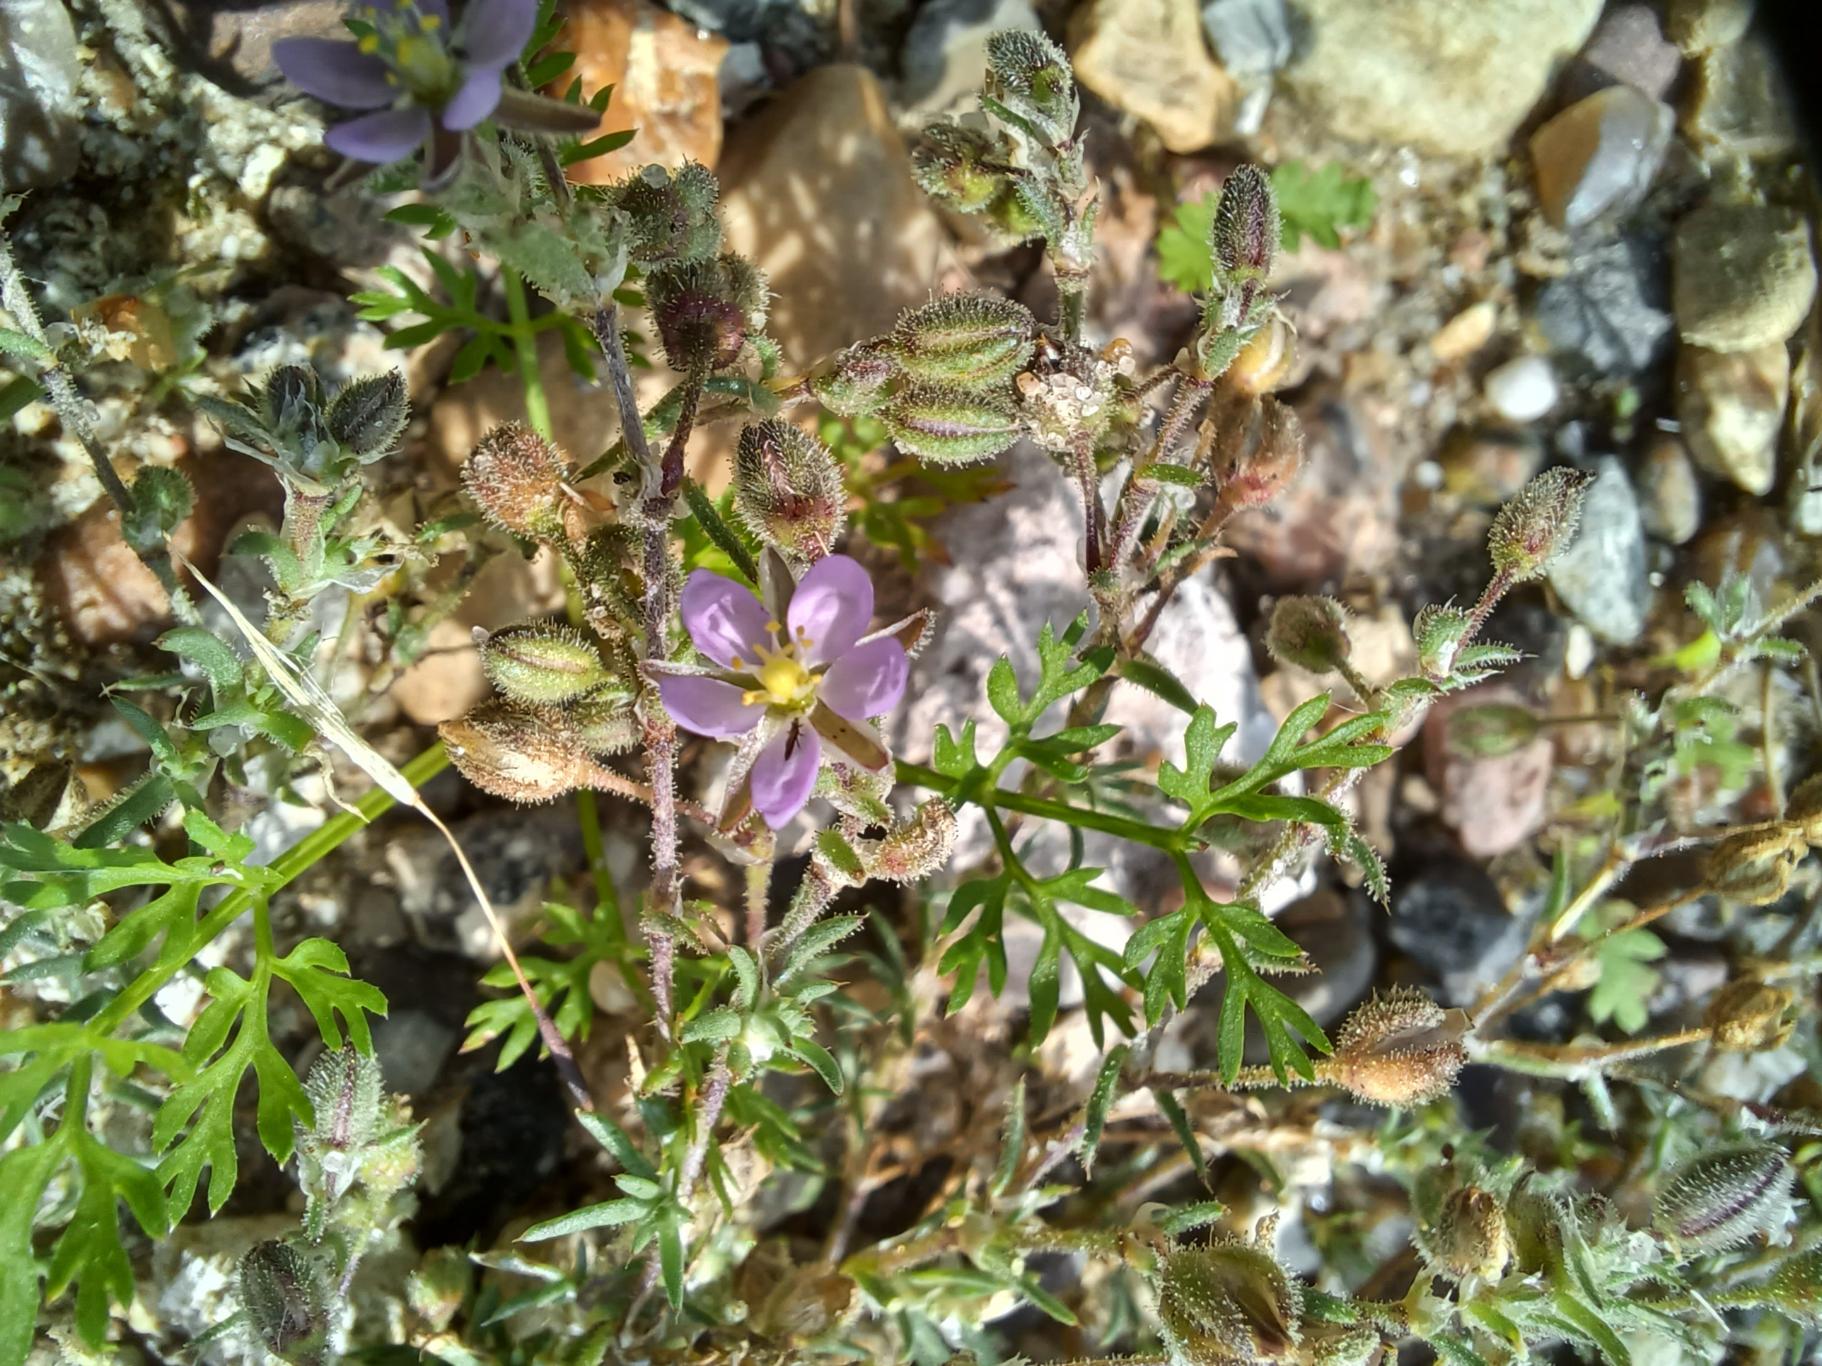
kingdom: Plantae
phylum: Tracheophyta
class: Magnoliopsida
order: Caryophyllales
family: Caryophyllaceae
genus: Spergularia
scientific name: Spergularia rubra
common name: Mark-hindeknæ
